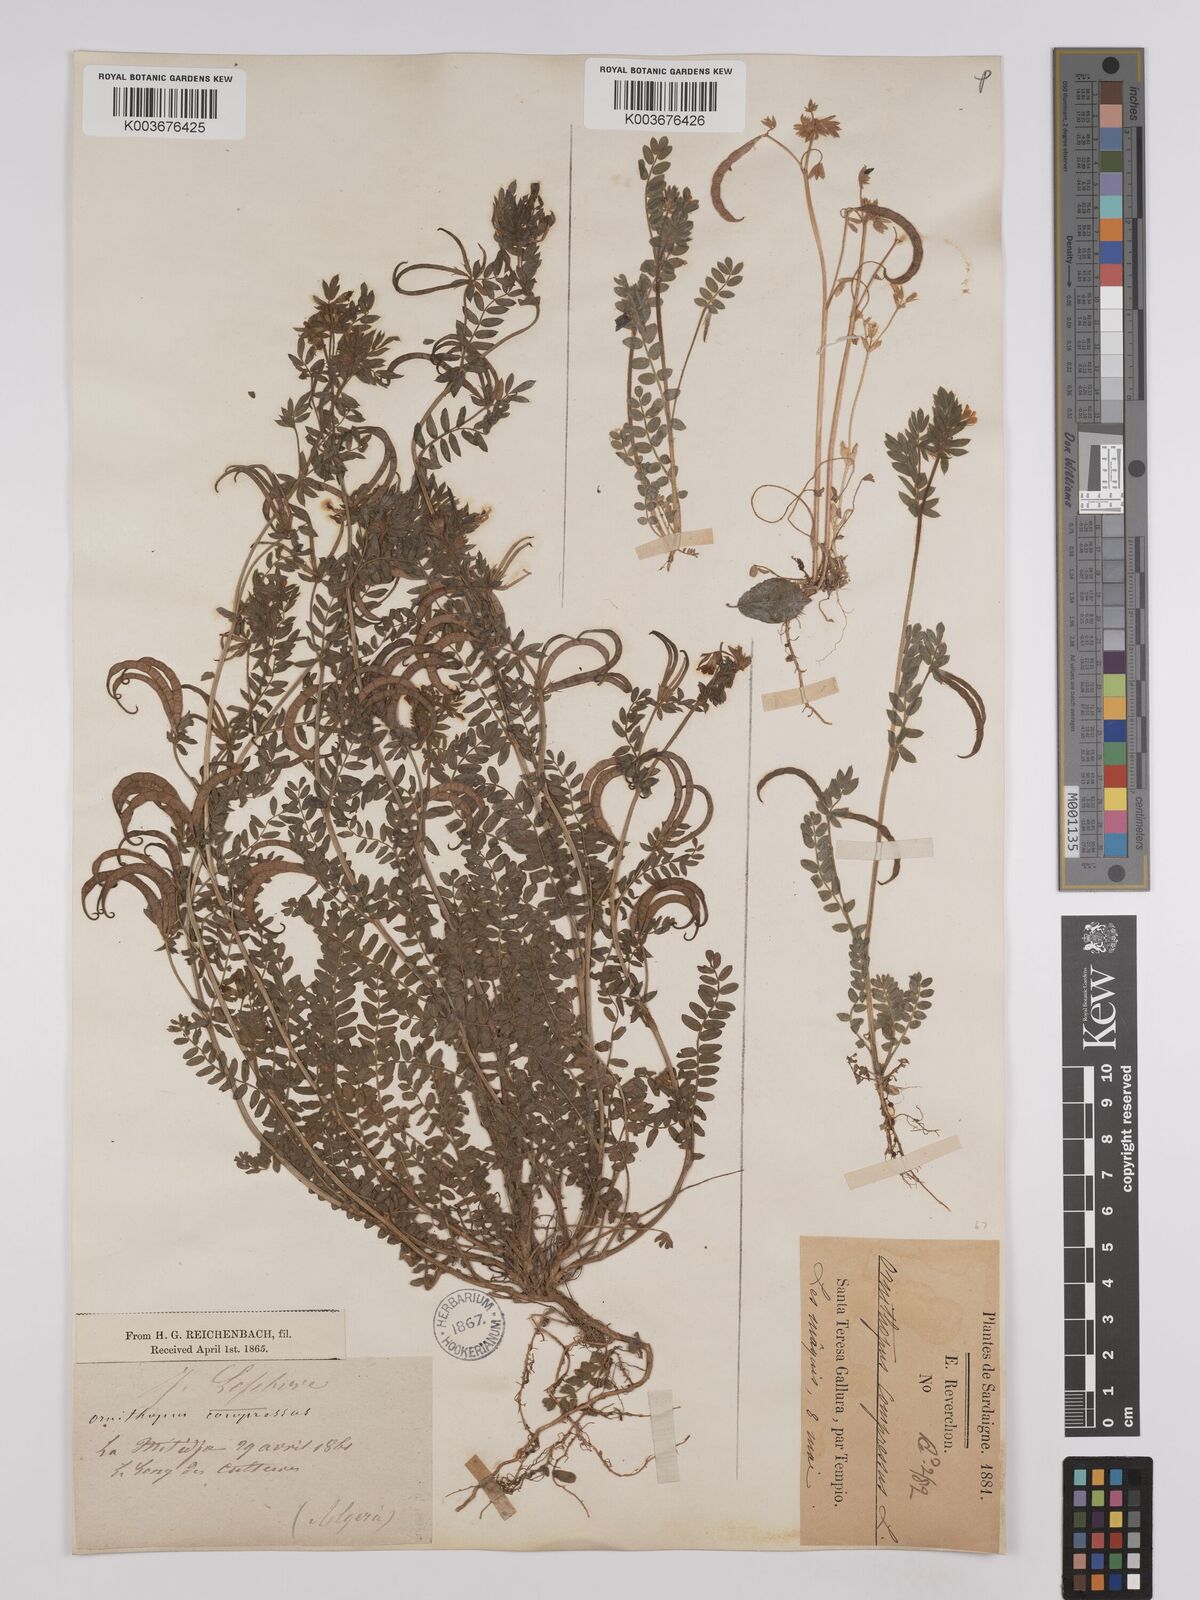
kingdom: Plantae
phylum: Tracheophyta
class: Magnoliopsida
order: Fabales
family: Fabaceae
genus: Ornithopus
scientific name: Ornithopus compressus
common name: Yellow serradella
